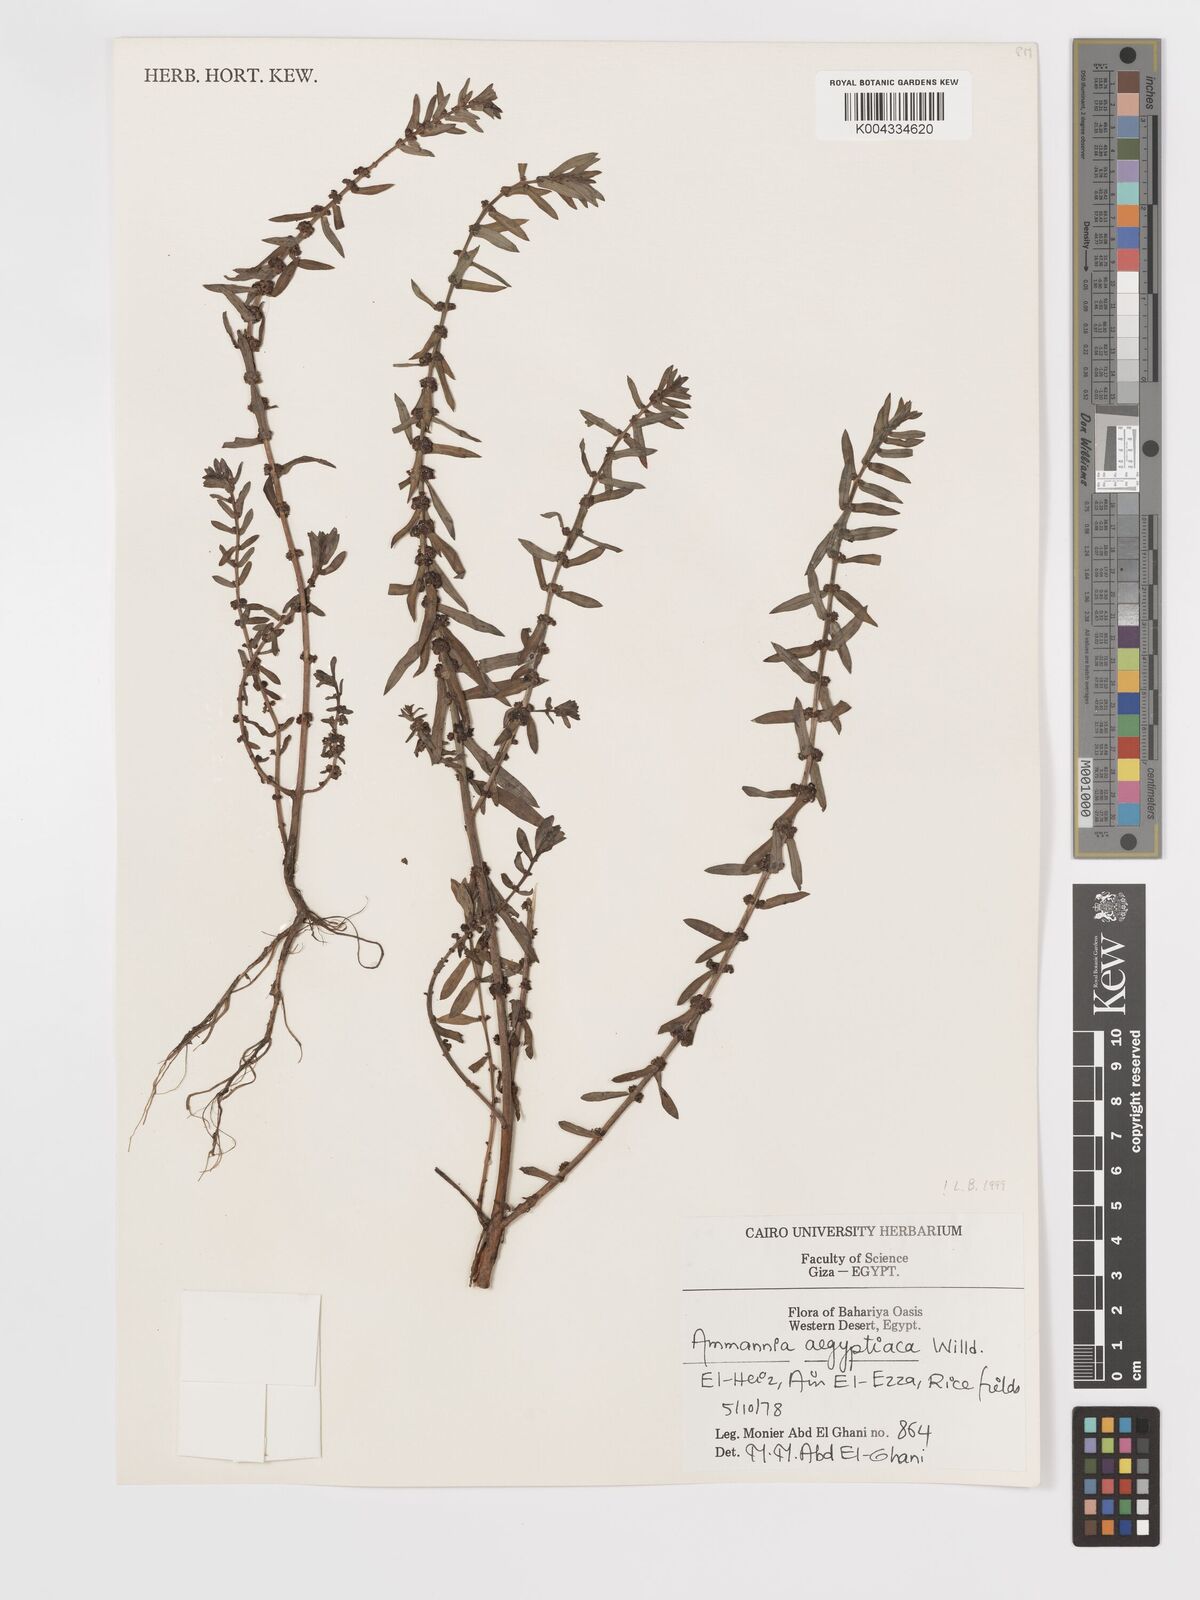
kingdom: Plantae
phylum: Tracheophyta
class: Magnoliopsida
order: Myrtales
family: Lythraceae
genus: Ammannia
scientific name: Ammannia
